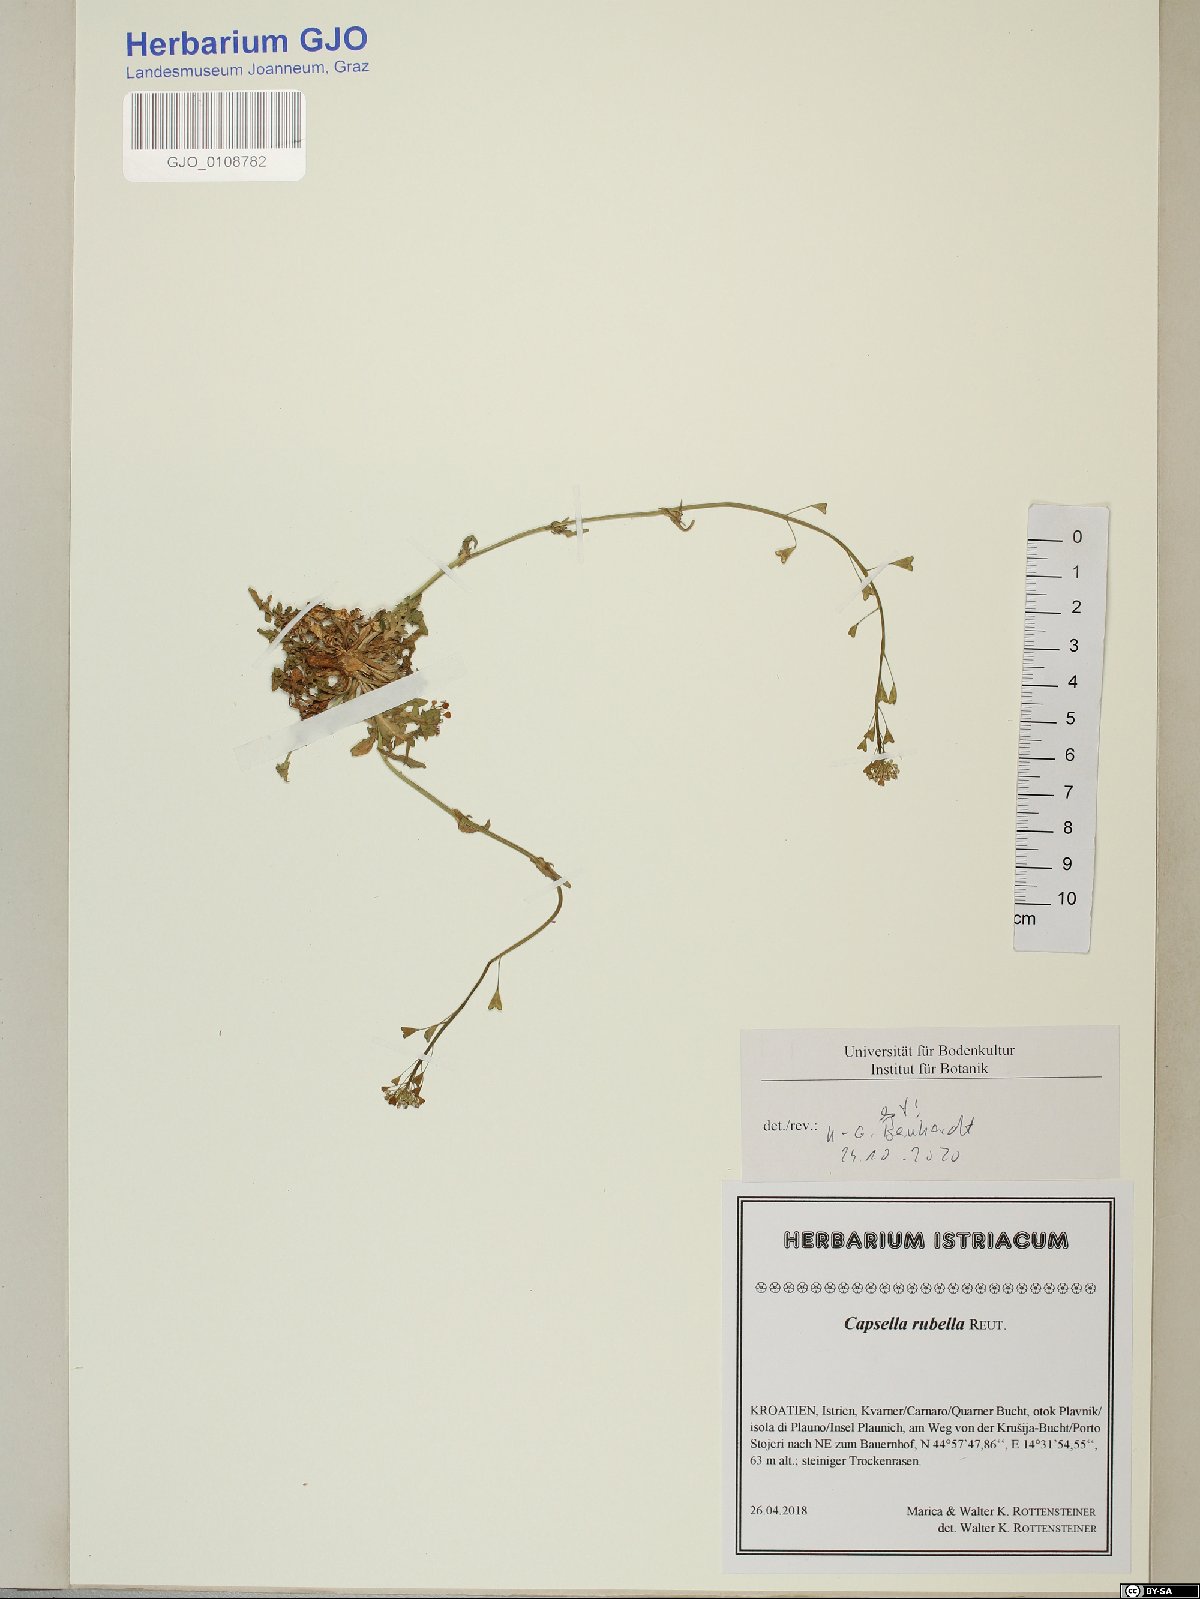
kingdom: Plantae
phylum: Tracheophyta
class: Magnoliopsida
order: Brassicales
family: Brassicaceae
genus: Capsella
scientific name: Capsella rubella
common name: Pink shepherd's-purse
